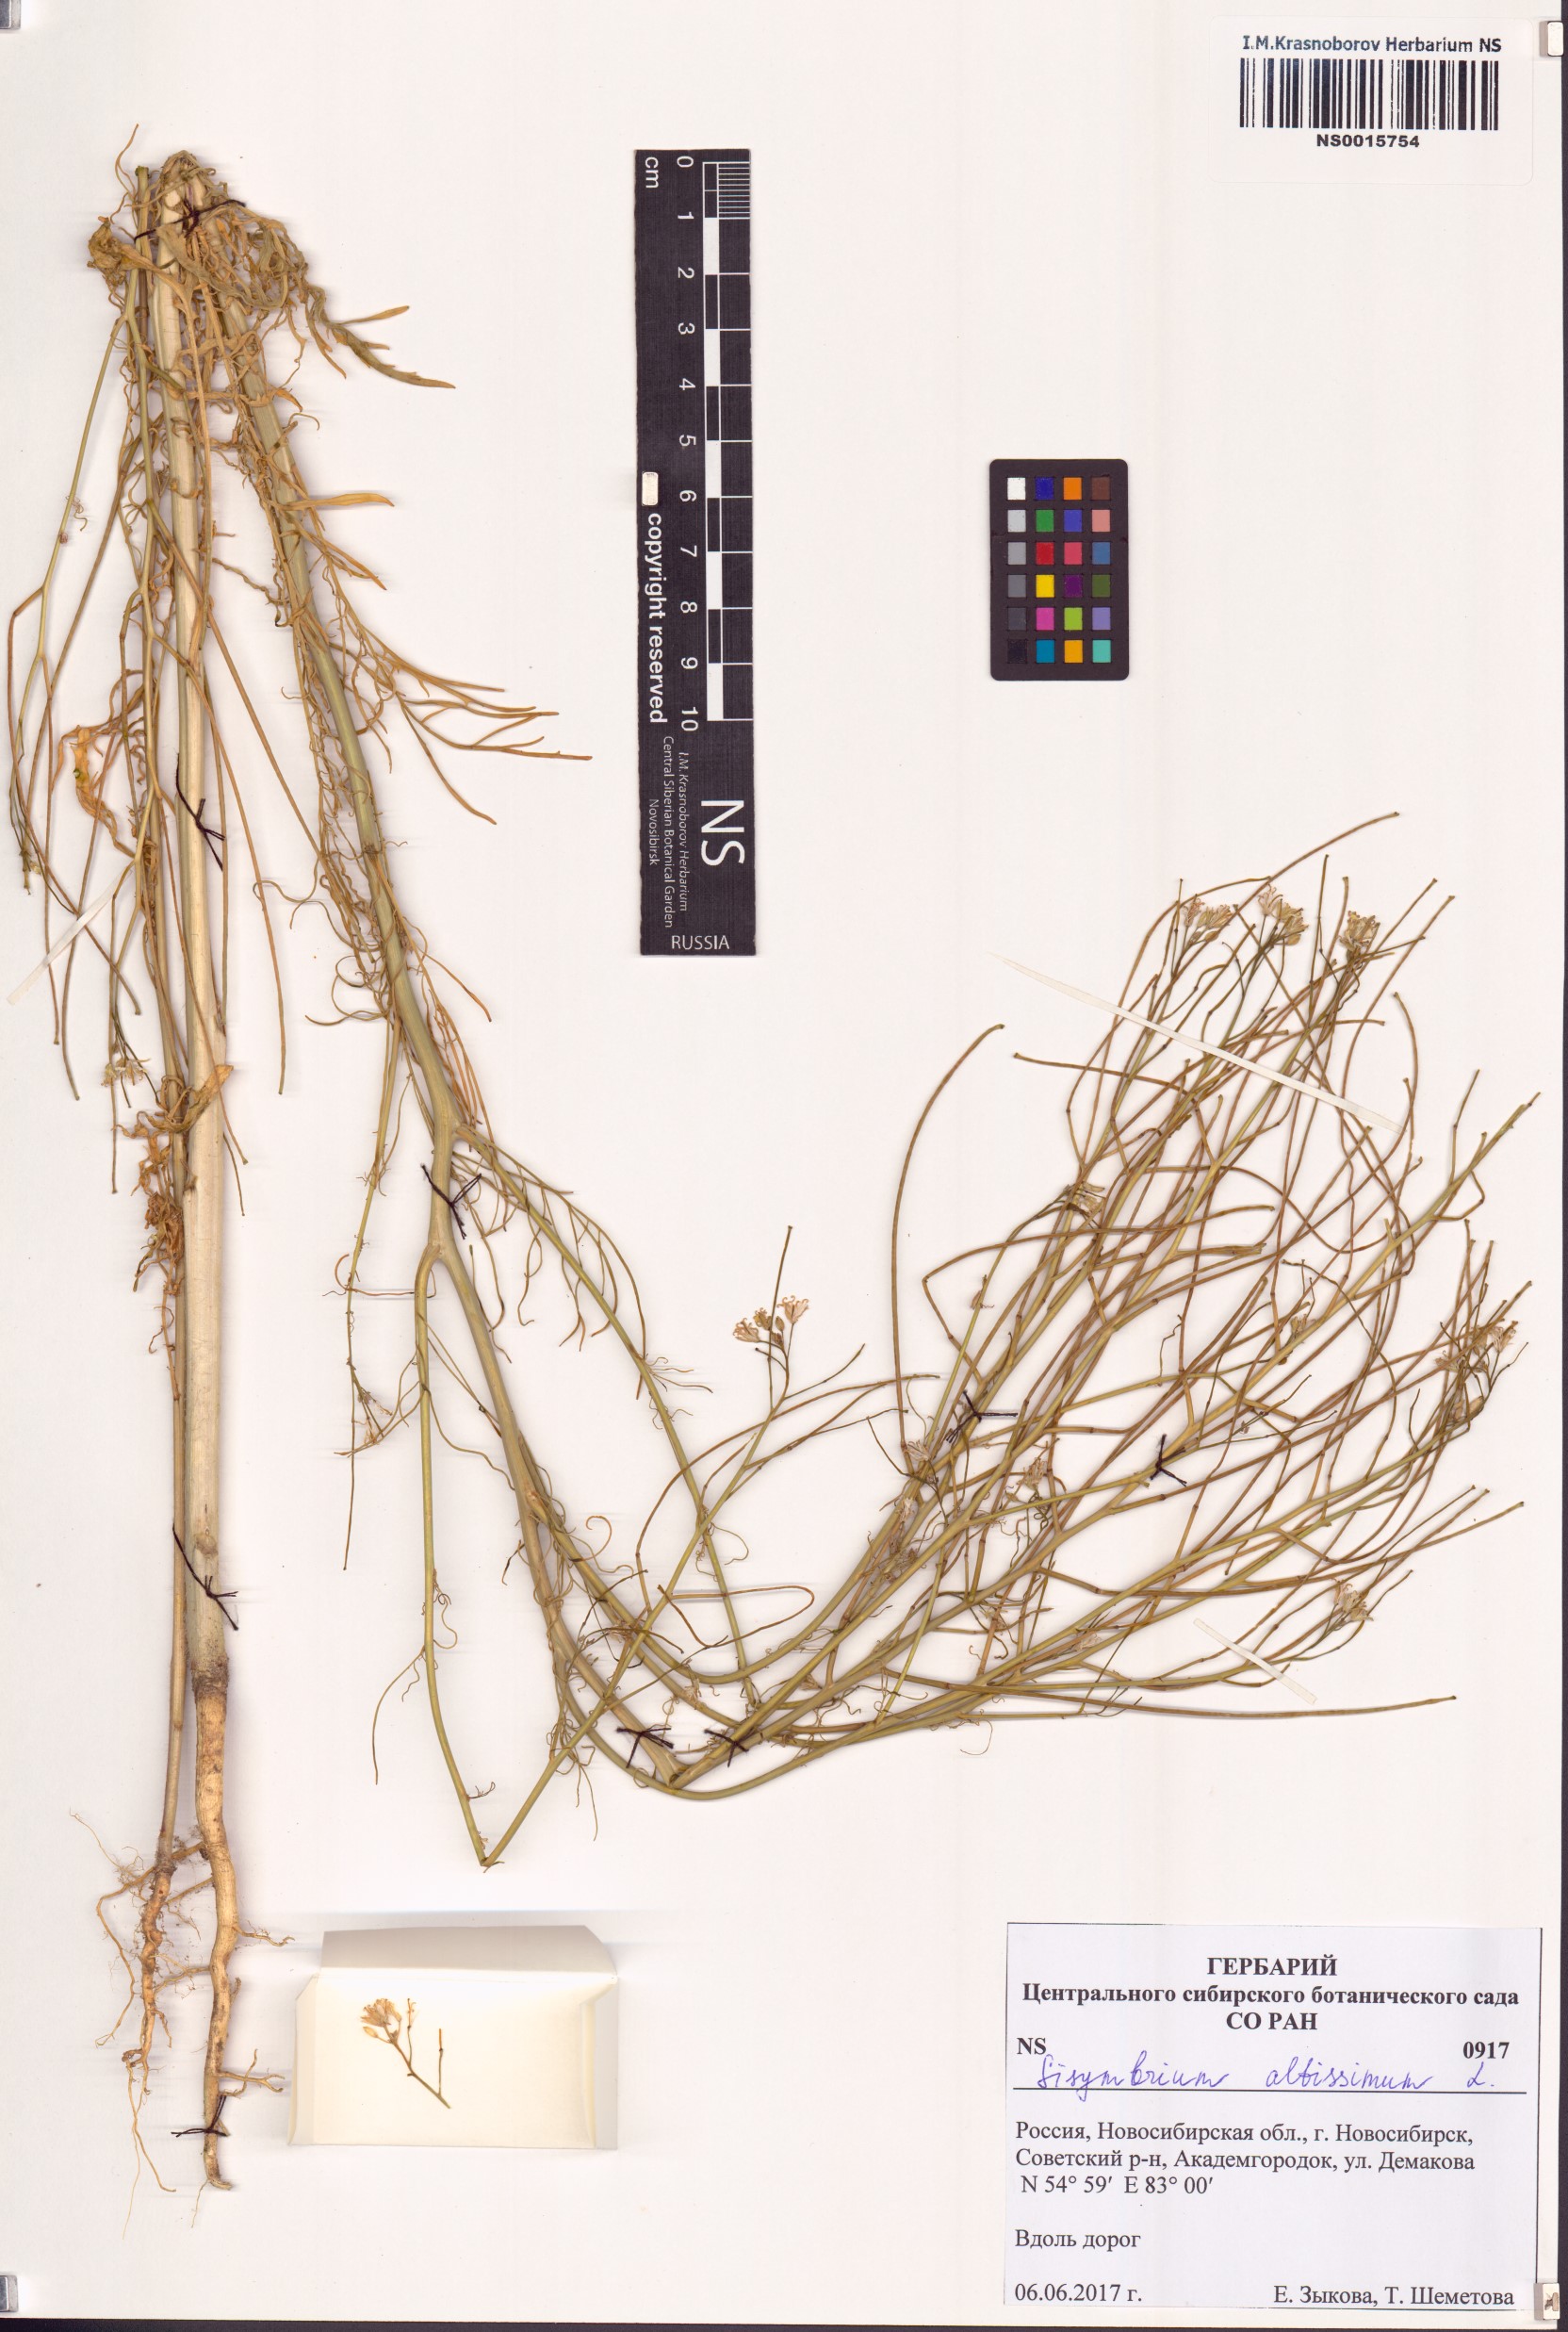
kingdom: Plantae
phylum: Tracheophyta
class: Magnoliopsida
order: Brassicales
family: Brassicaceae
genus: Sisymbrium
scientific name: Sisymbrium altissimum
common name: Tall rocket
